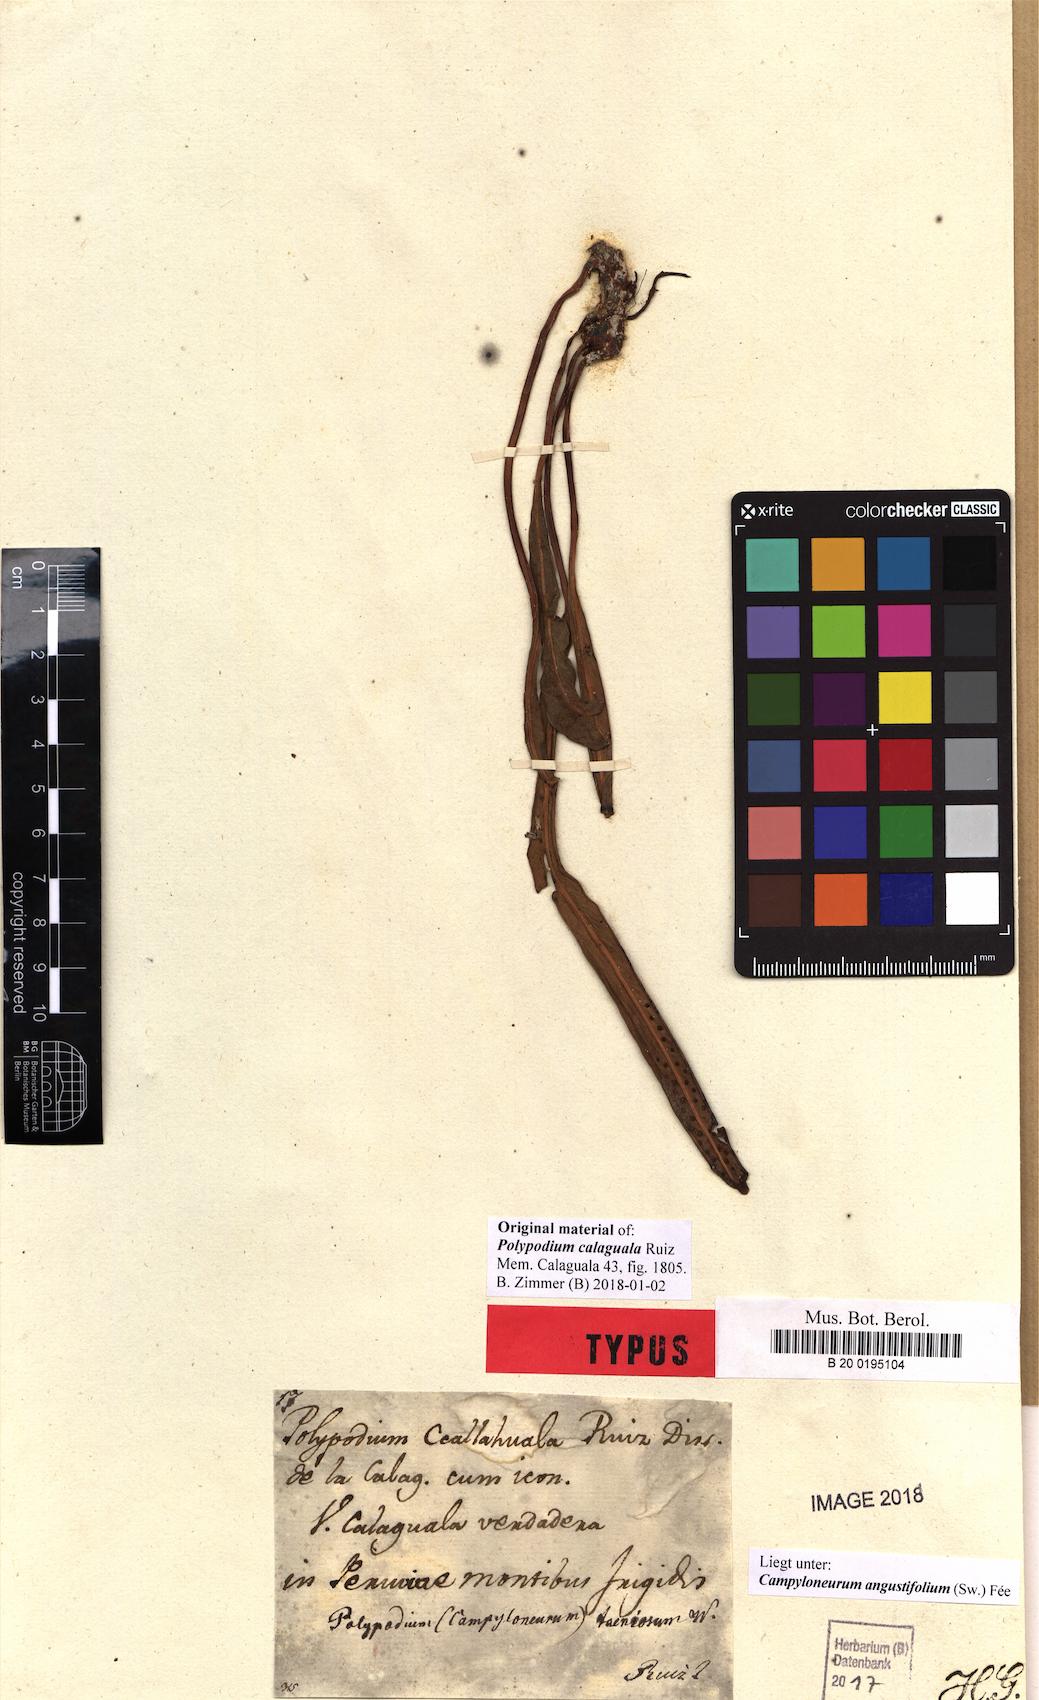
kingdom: Plantae
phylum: Tracheophyta
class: Polypodiopsida
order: Polypodiales
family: Polypodiaceae
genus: Campyloneurum
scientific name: Campyloneurum angustifolium
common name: Narrow-leaf strap fern
